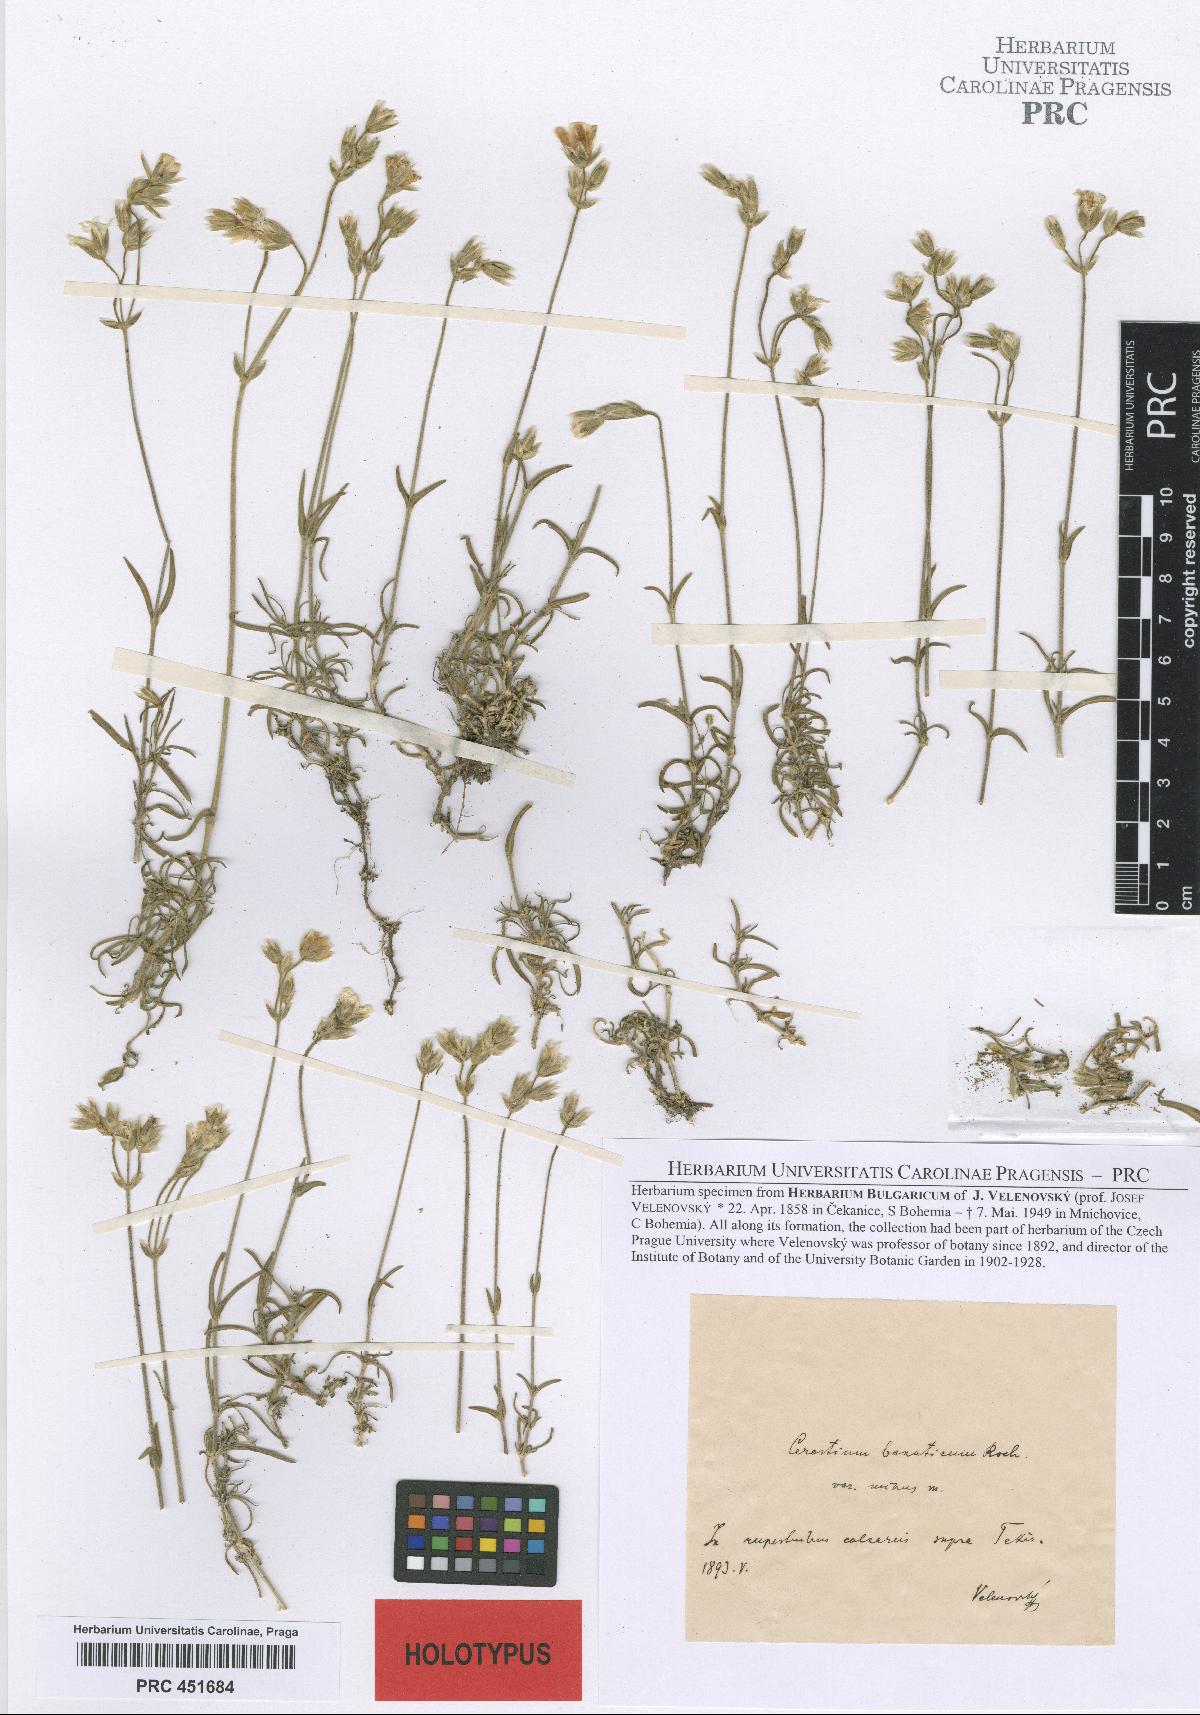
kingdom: Plantae
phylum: Tracheophyta
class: Magnoliopsida
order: Caryophyllales
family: Caryophyllaceae
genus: Cerastium
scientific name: Cerastium banaticum
